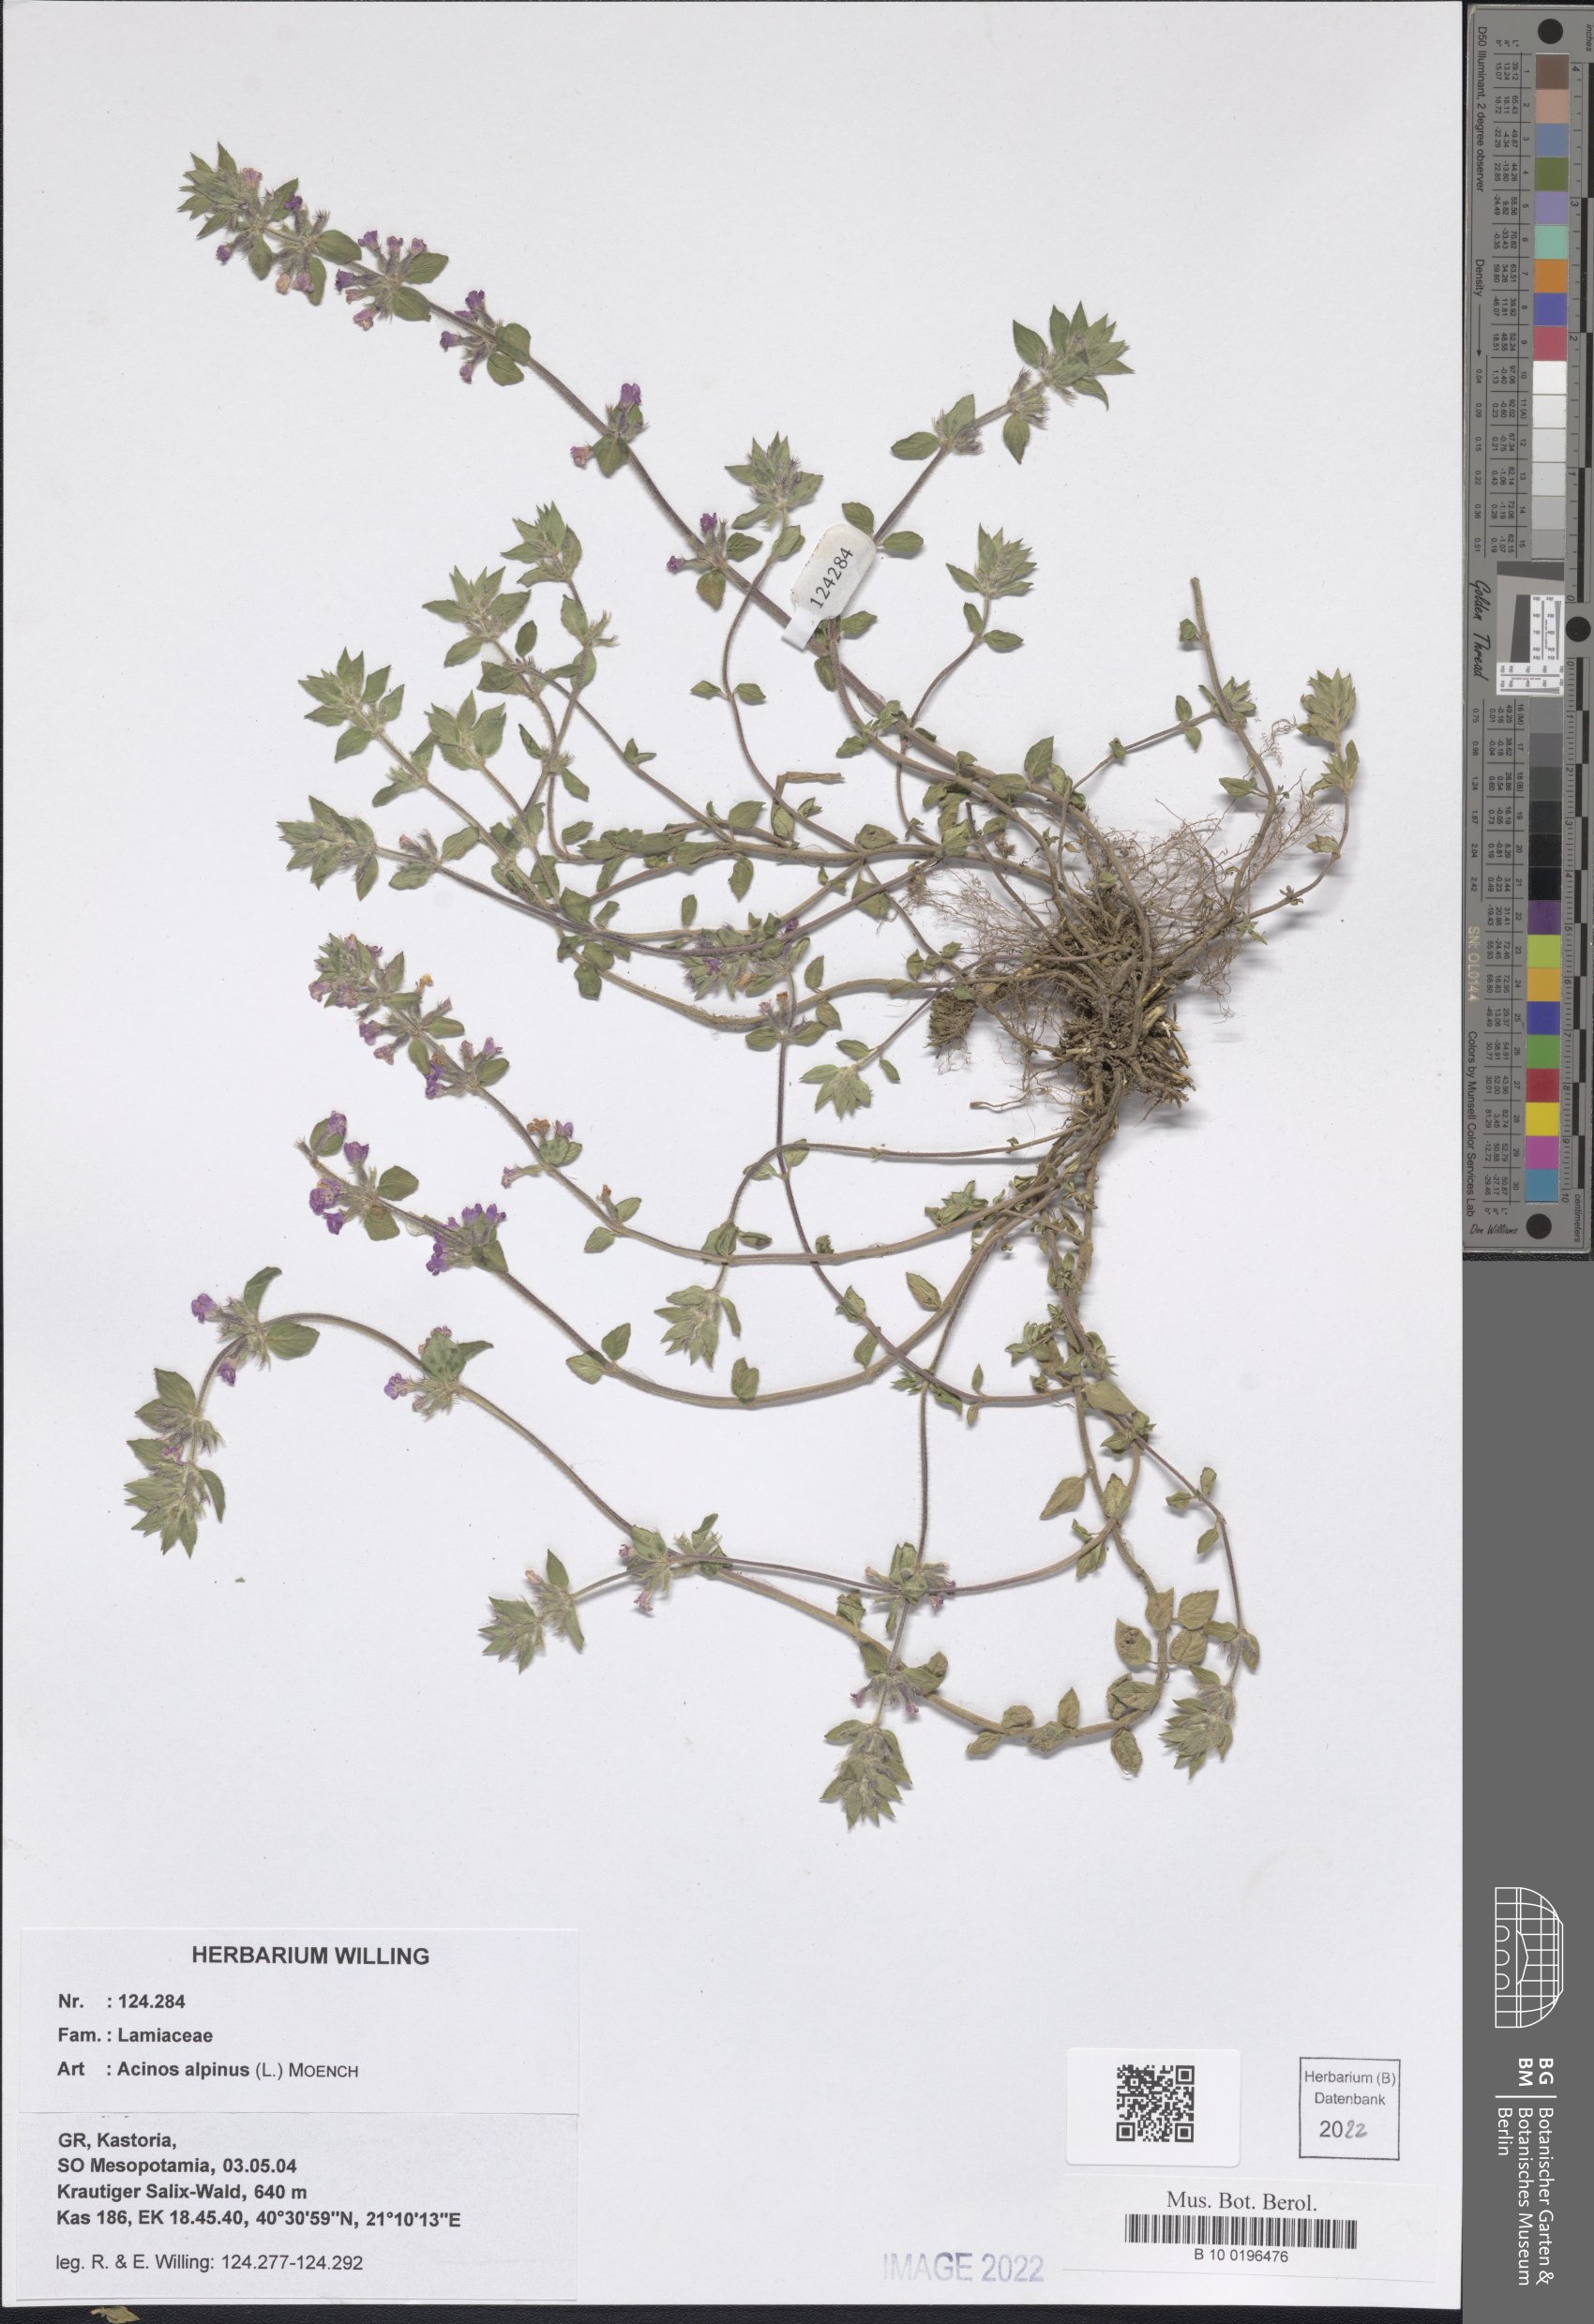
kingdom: Plantae
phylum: Tracheophyta
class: Magnoliopsida
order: Lamiales
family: Lamiaceae
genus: Clinopodium
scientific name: Clinopodium alpinum
